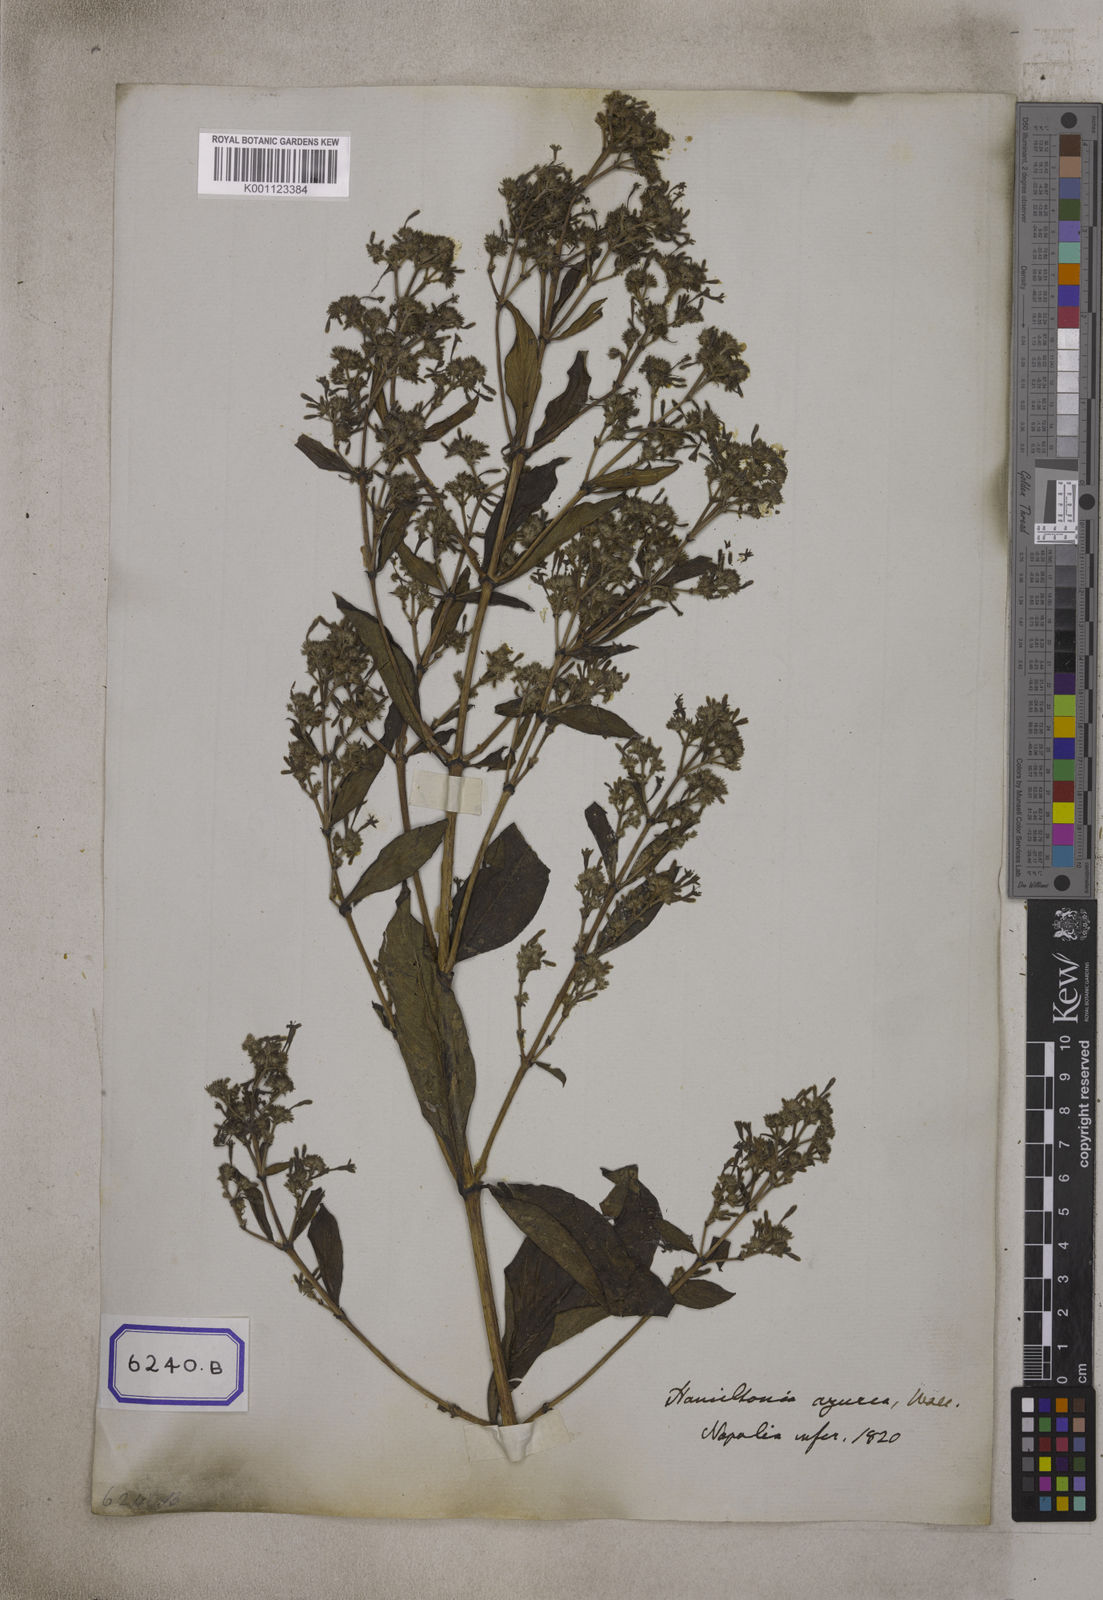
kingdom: Plantae
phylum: Tracheophyta
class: Magnoliopsida
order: Gentianales
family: Rubiaceae
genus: Spermadictyon
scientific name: Spermadictyon suaveolens
